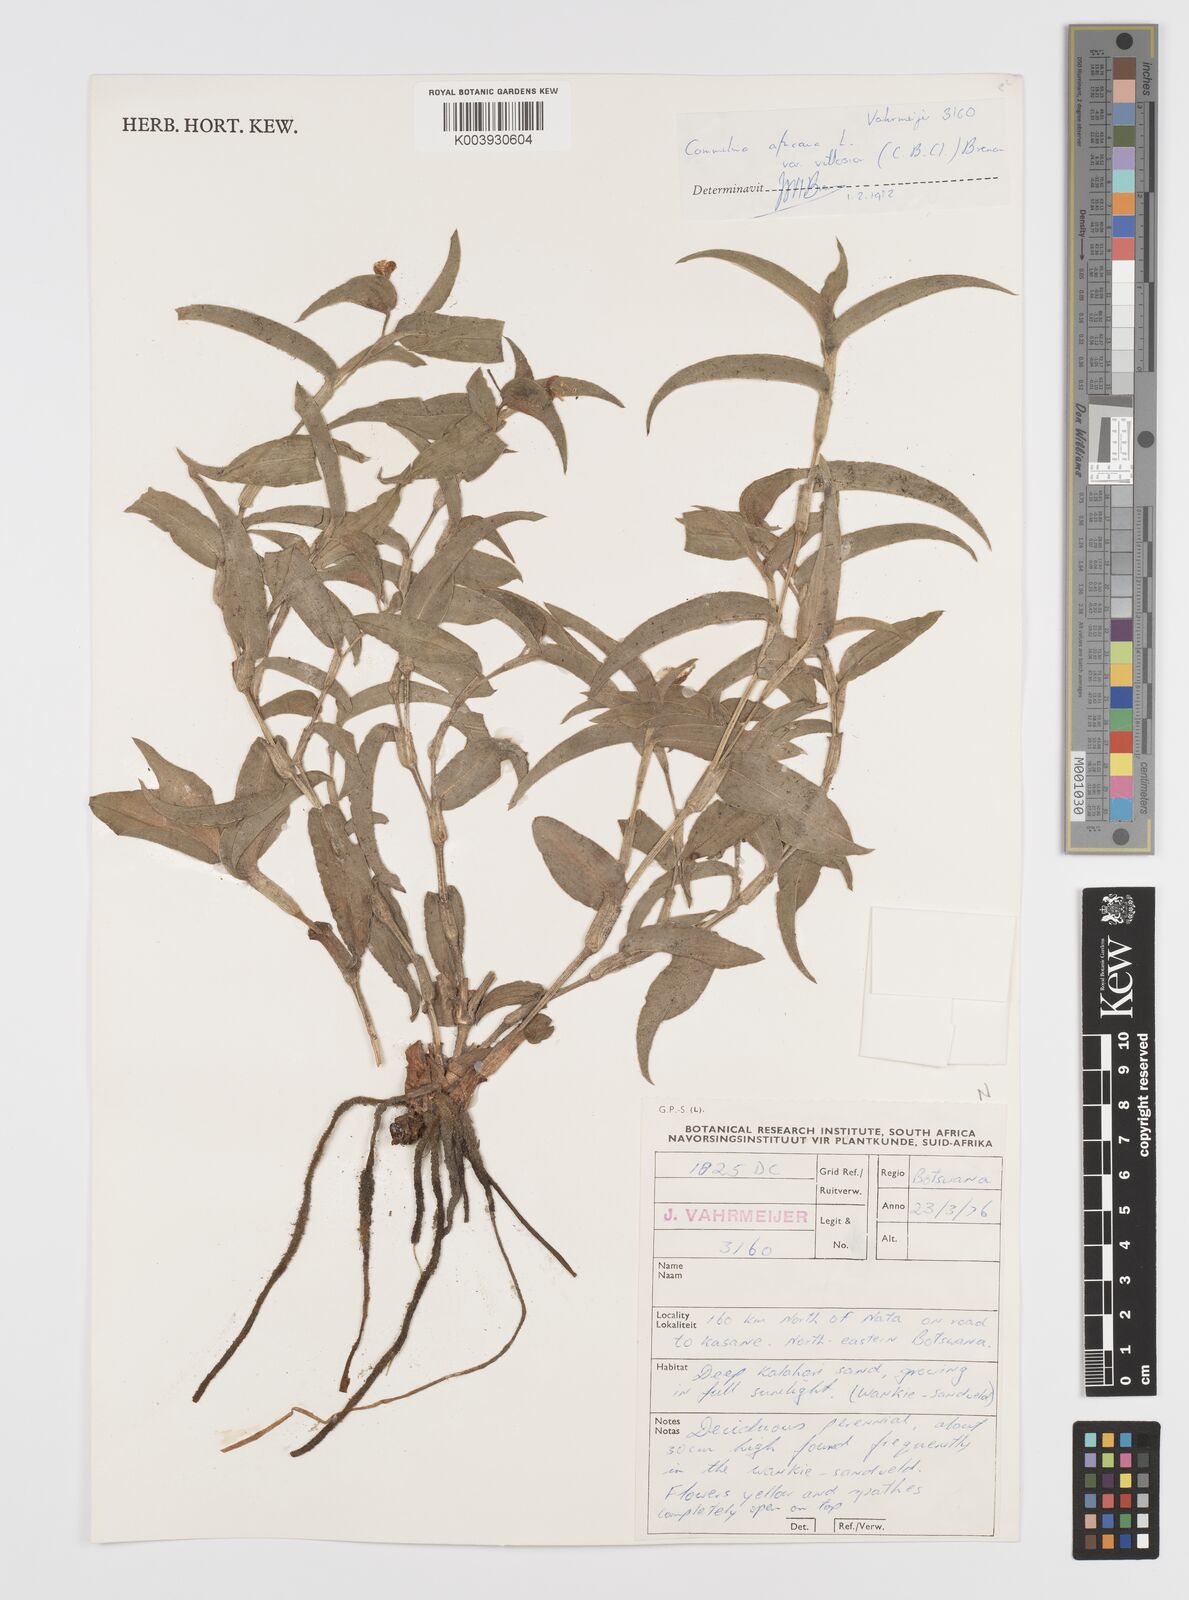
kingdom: Plantae
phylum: Tracheophyta
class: Liliopsida
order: Commelinales
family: Commelinaceae
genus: Commelina
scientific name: Commelina africana
